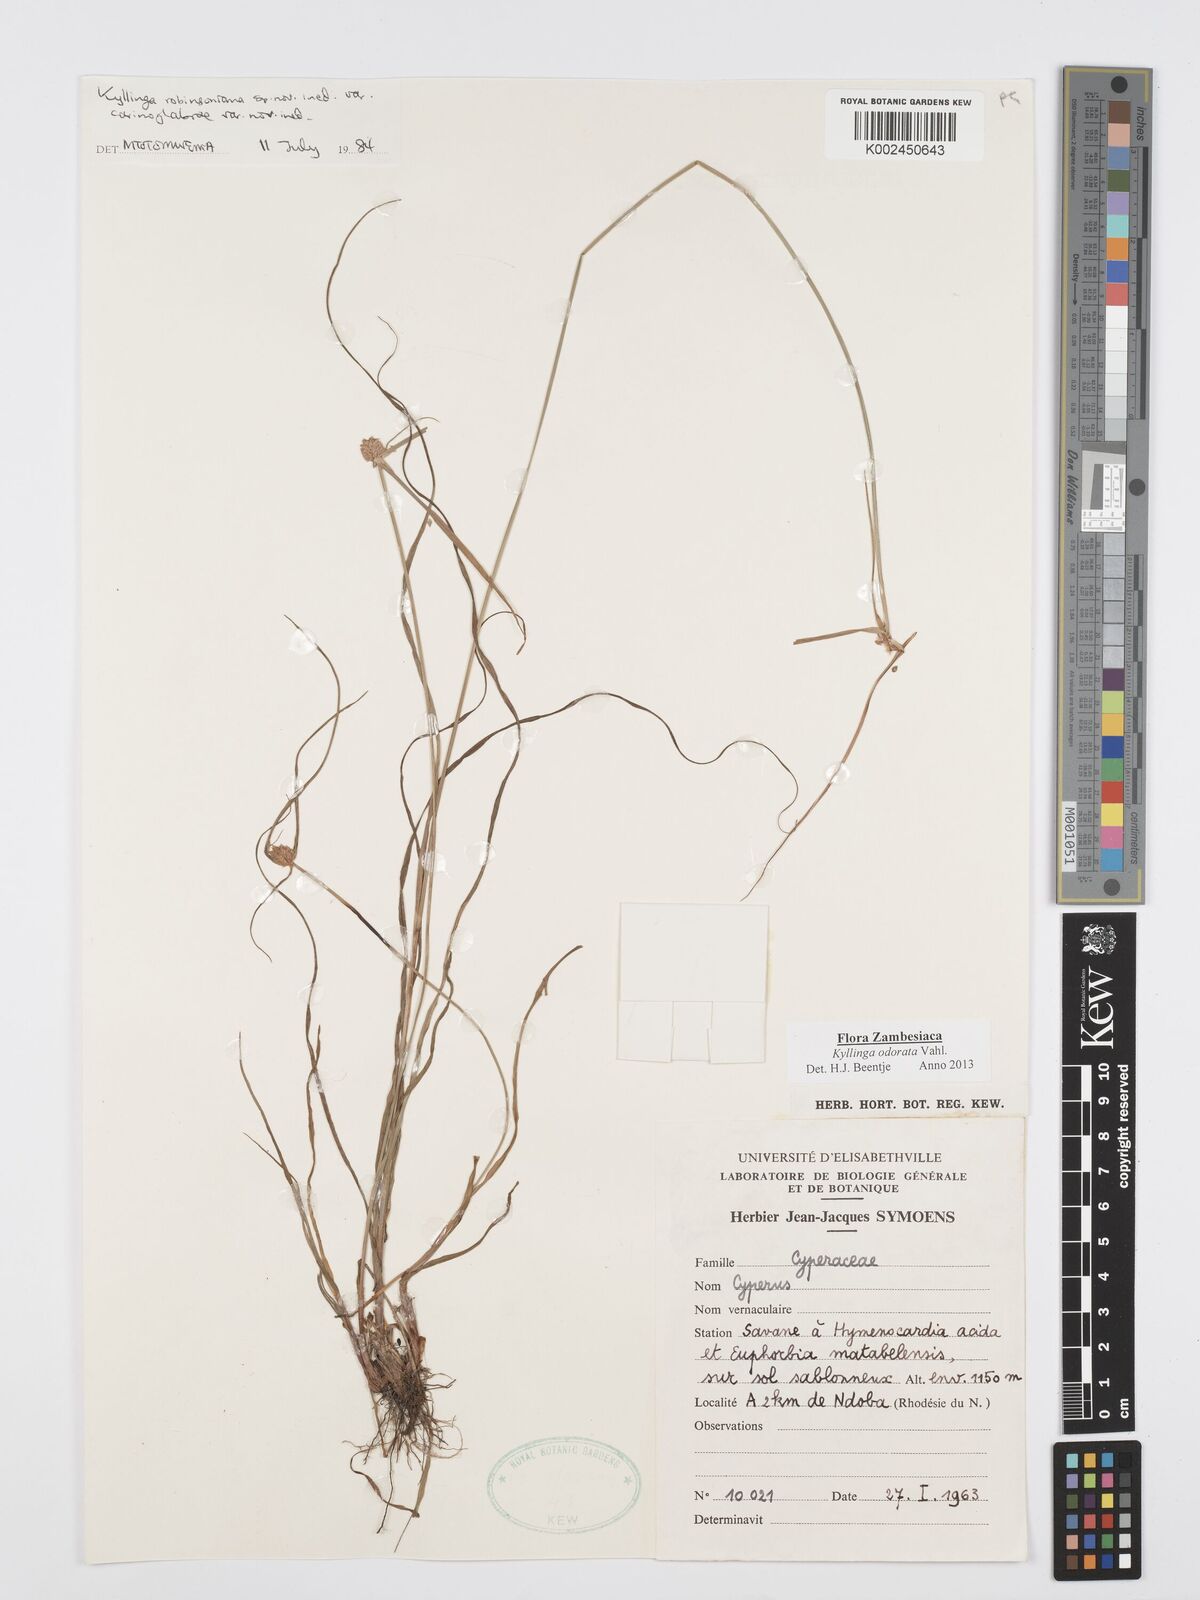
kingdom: Plantae
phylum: Tracheophyta
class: Liliopsida
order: Poales
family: Cyperaceae
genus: Cyperus
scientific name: Cyperus
